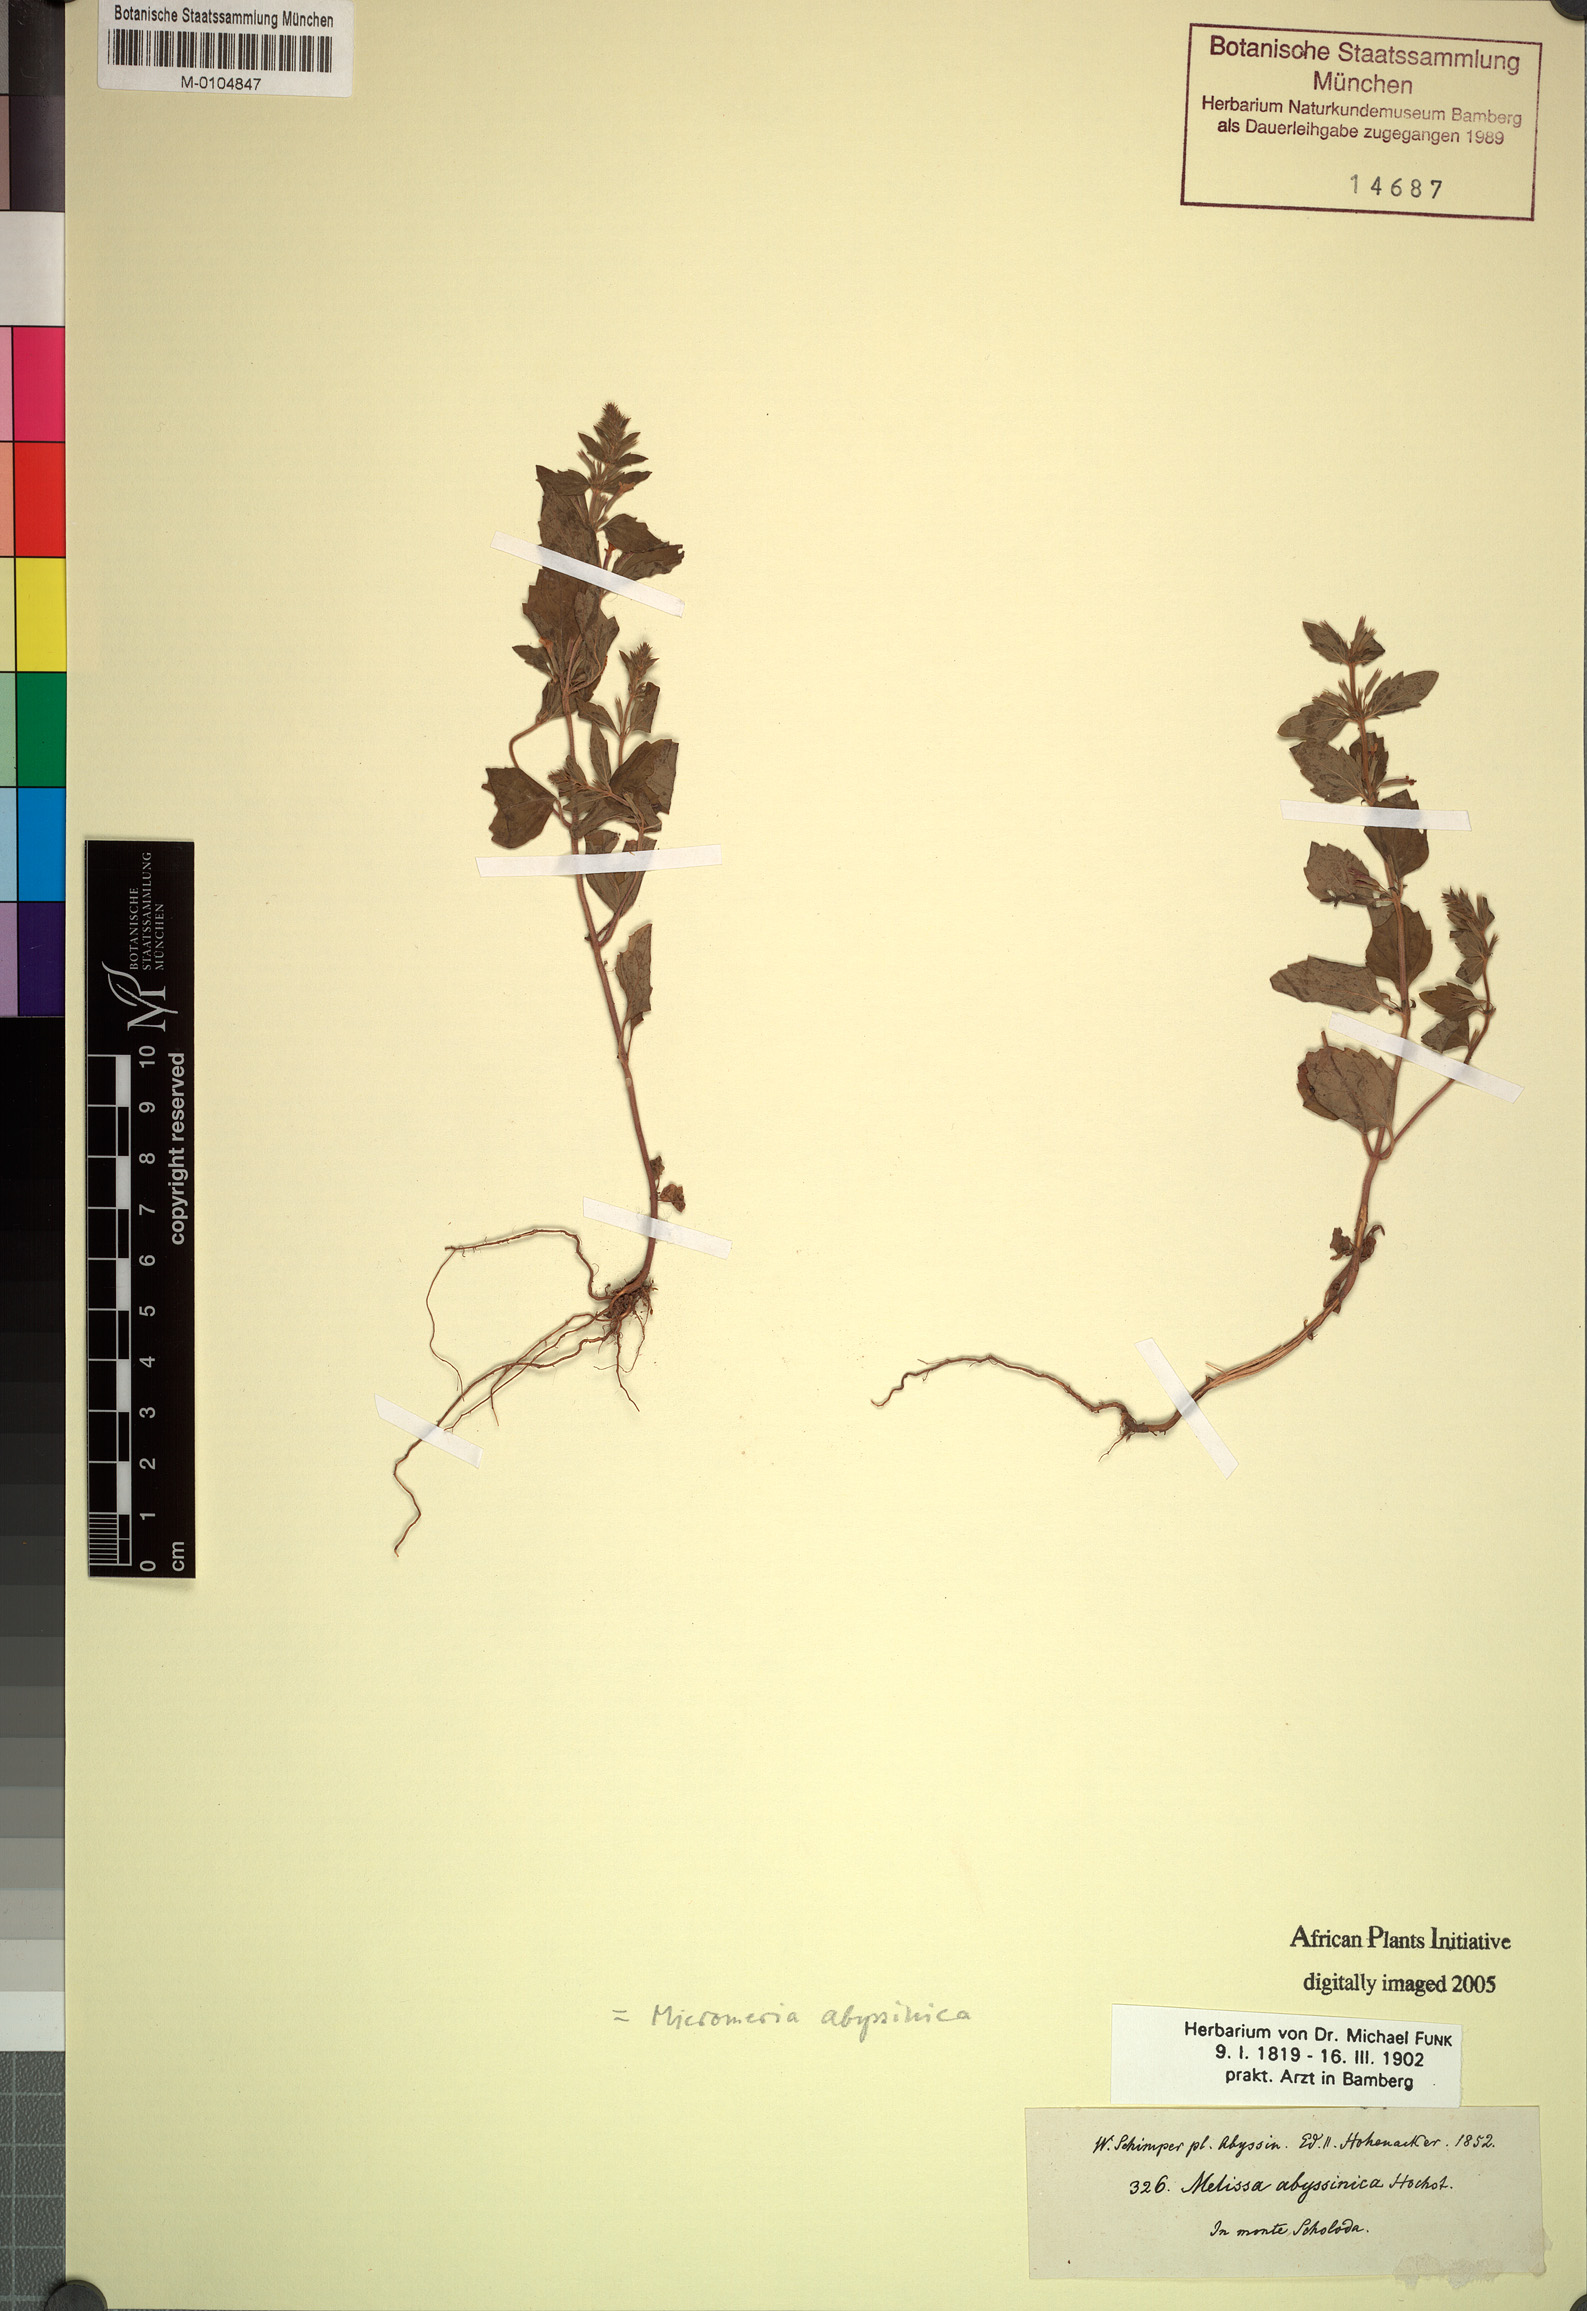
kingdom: Plantae
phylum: Tracheophyta
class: Magnoliopsida
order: Lamiales
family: Lamiaceae
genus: Clinopodium
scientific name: Clinopodium abyssinicum
